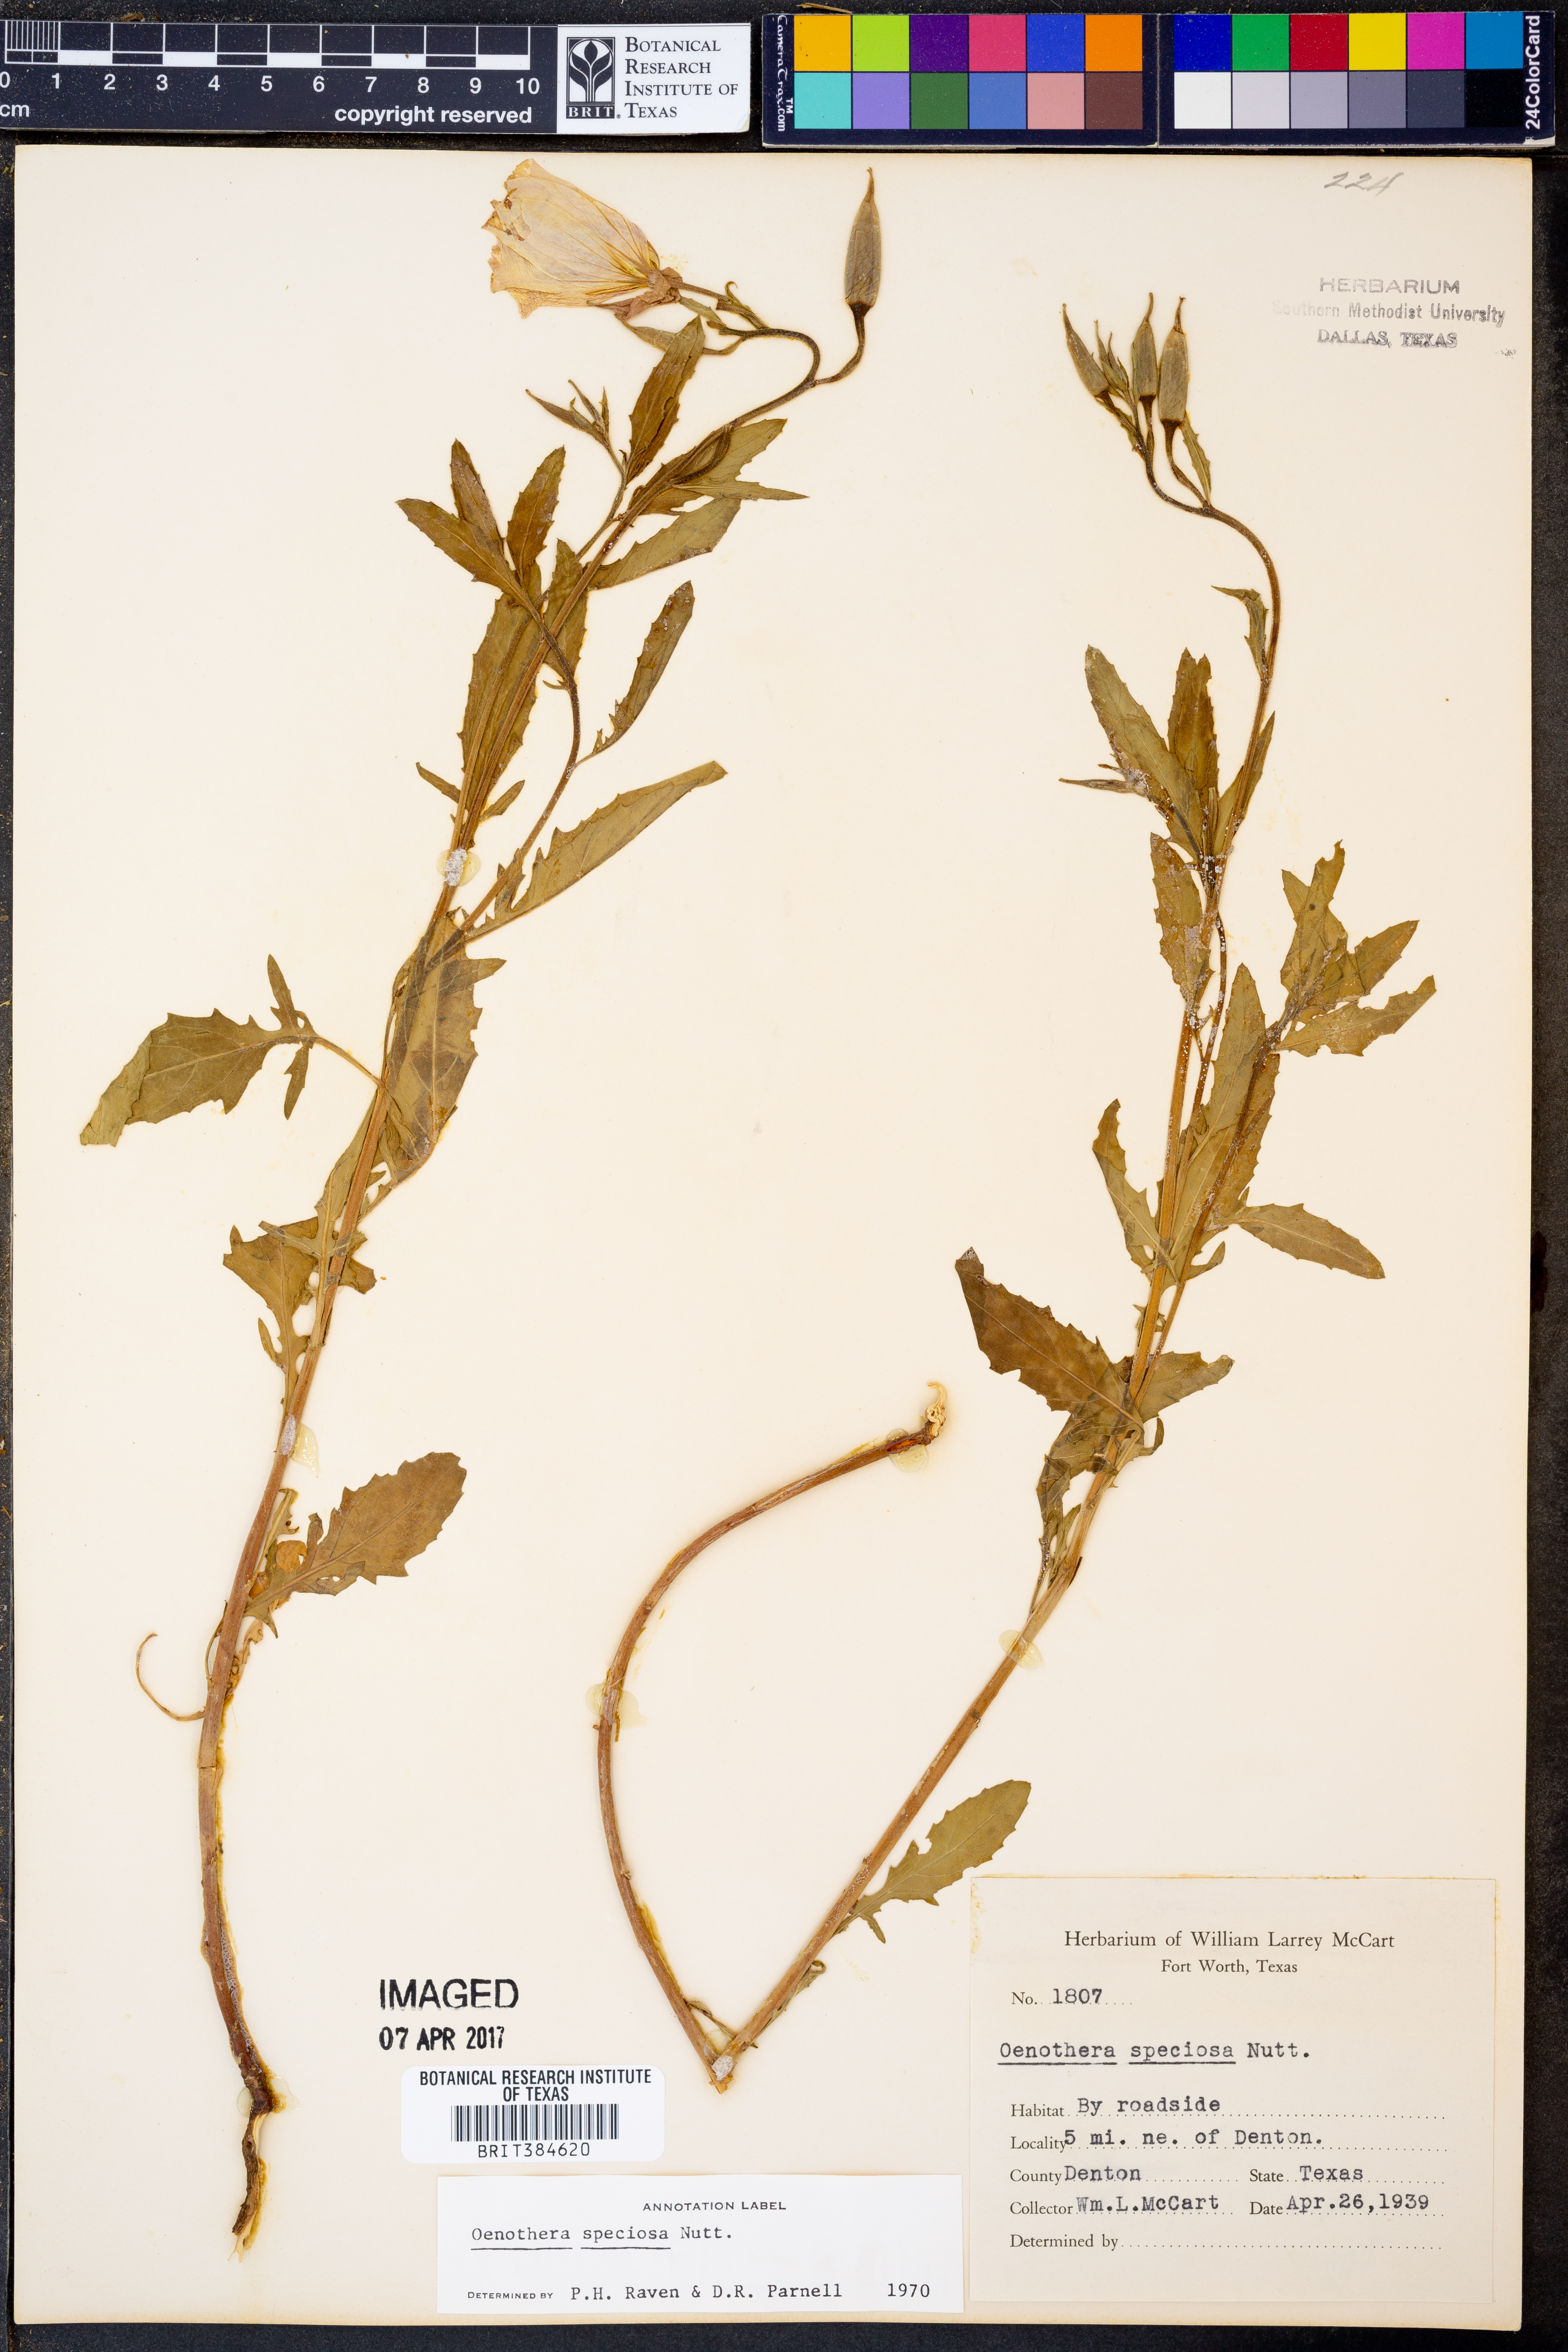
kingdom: Plantae
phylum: Tracheophyta
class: Magnoliopsida
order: Myrtales
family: Onagraceae
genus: Oenothera
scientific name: Oenothera speciosa
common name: White evening-primrose
